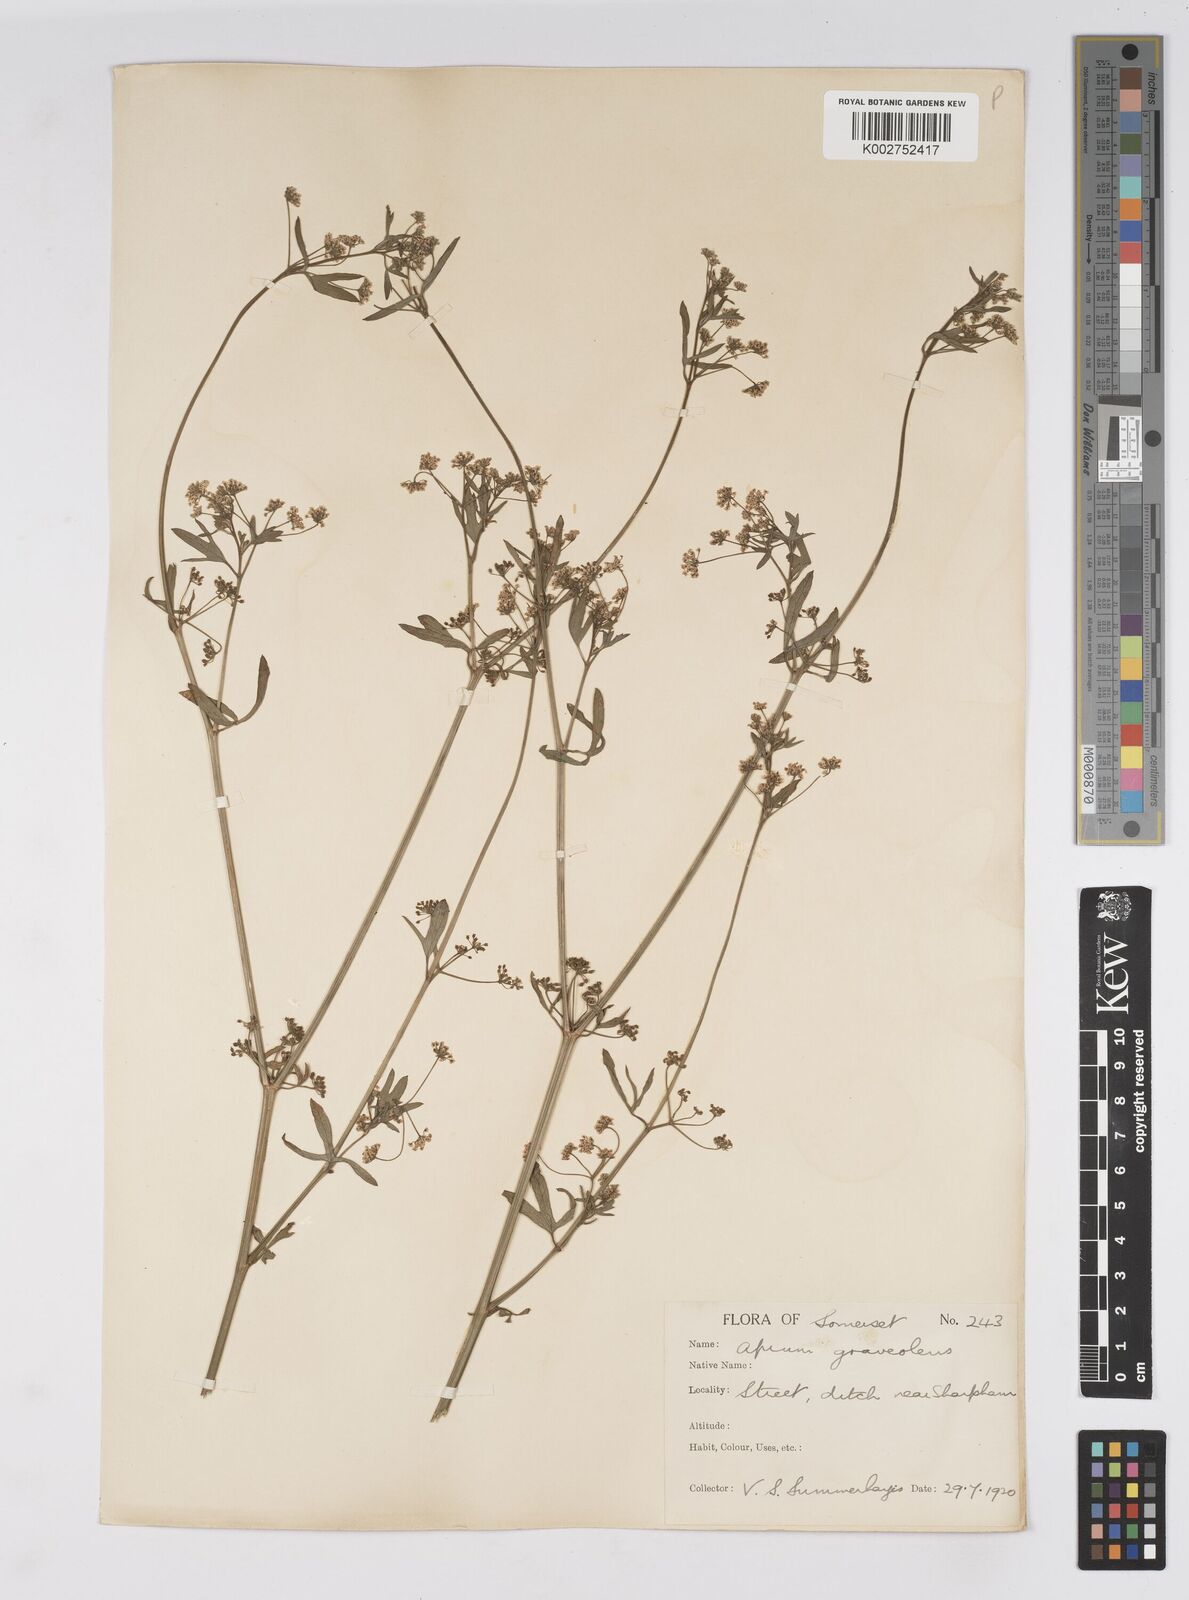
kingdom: Plantae
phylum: Tracheophyta
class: Magnoliopsida
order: Apiales
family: Apiaceae
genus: Apium
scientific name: Apium graveolens
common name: Wild celery
